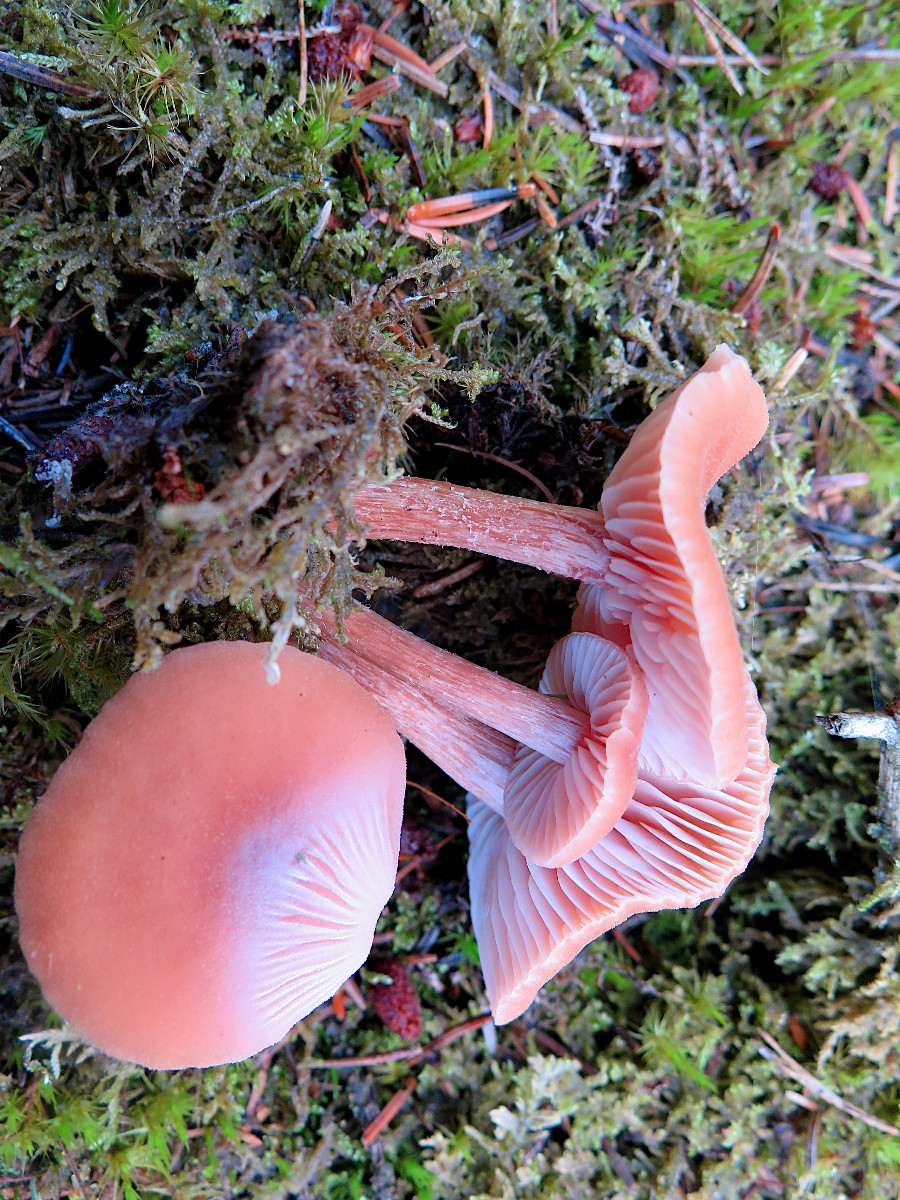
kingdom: Fungi
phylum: Basidiomycota
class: Agaricomycetes
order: Agaricales
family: Hydnangiaceae
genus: Laccaria
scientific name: Laccaria laccata
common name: rød ametysthat
